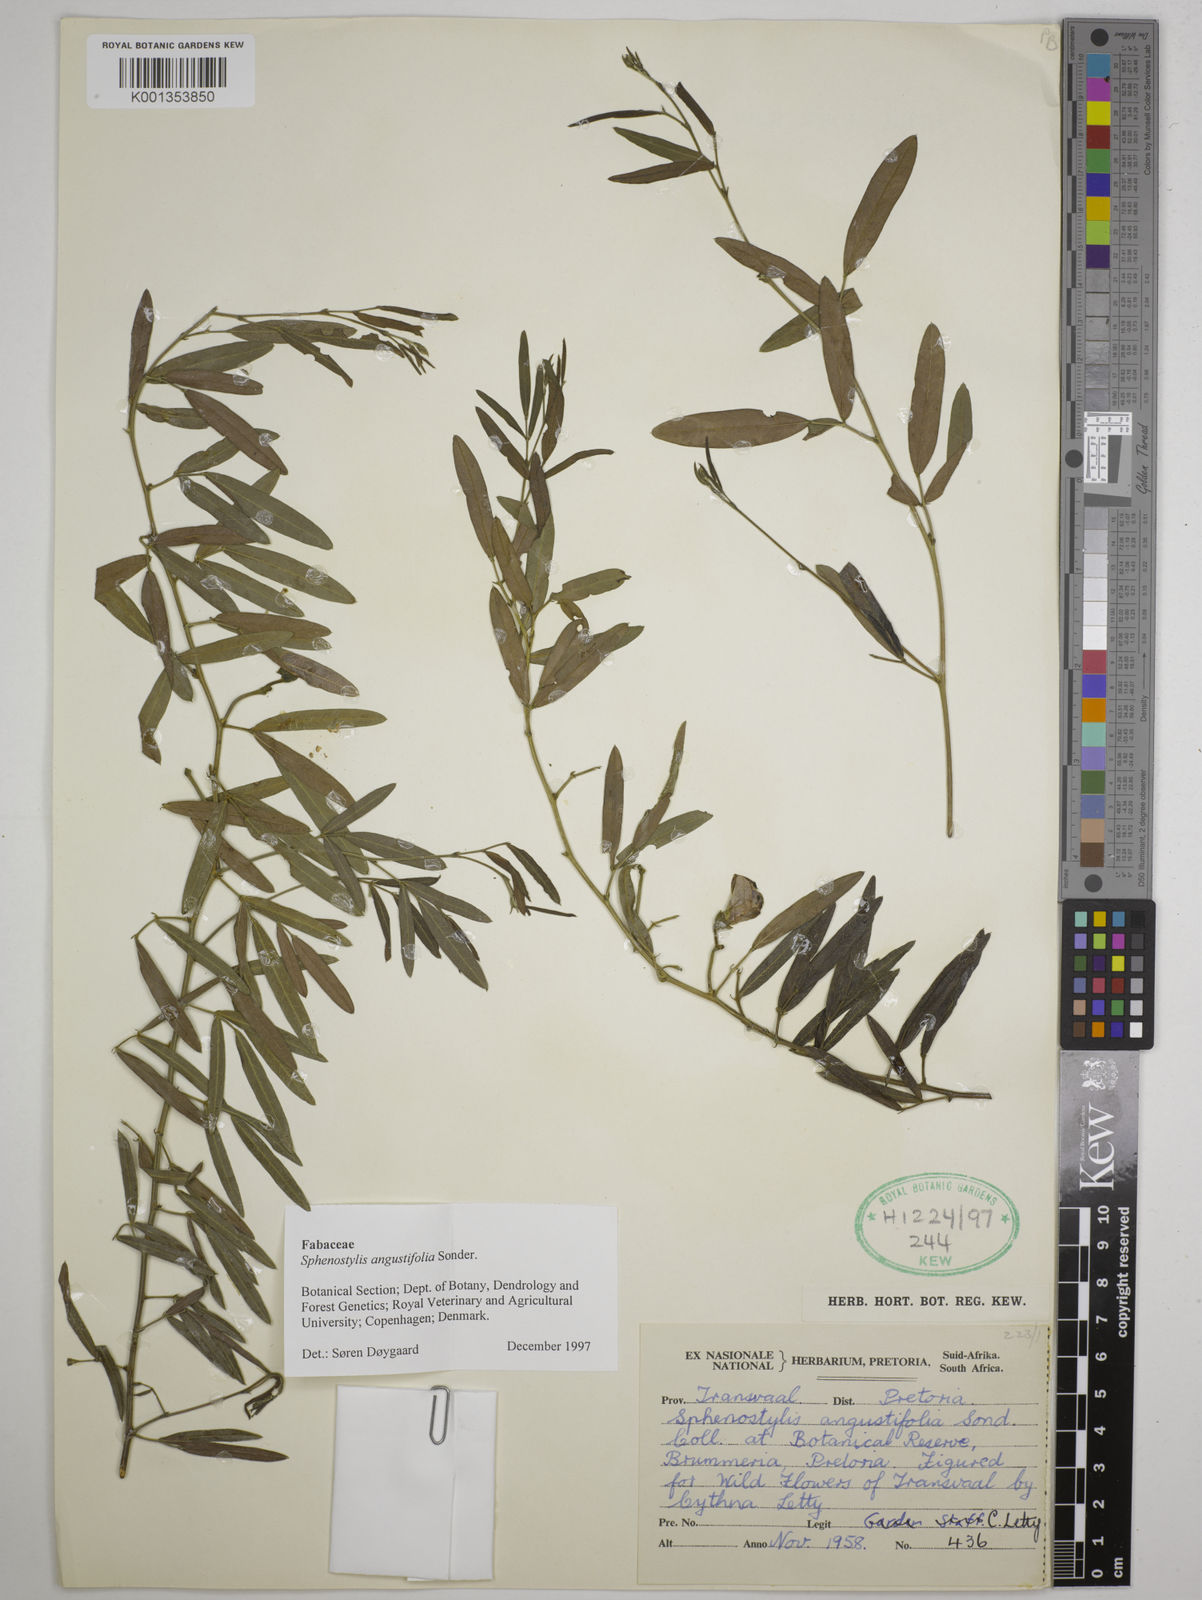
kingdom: Plantae
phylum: Tracheophyta
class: Magnoliopsida
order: Fabales
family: Fabaceae
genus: Sphenostylis
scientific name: Sphenostylis angustifolia
